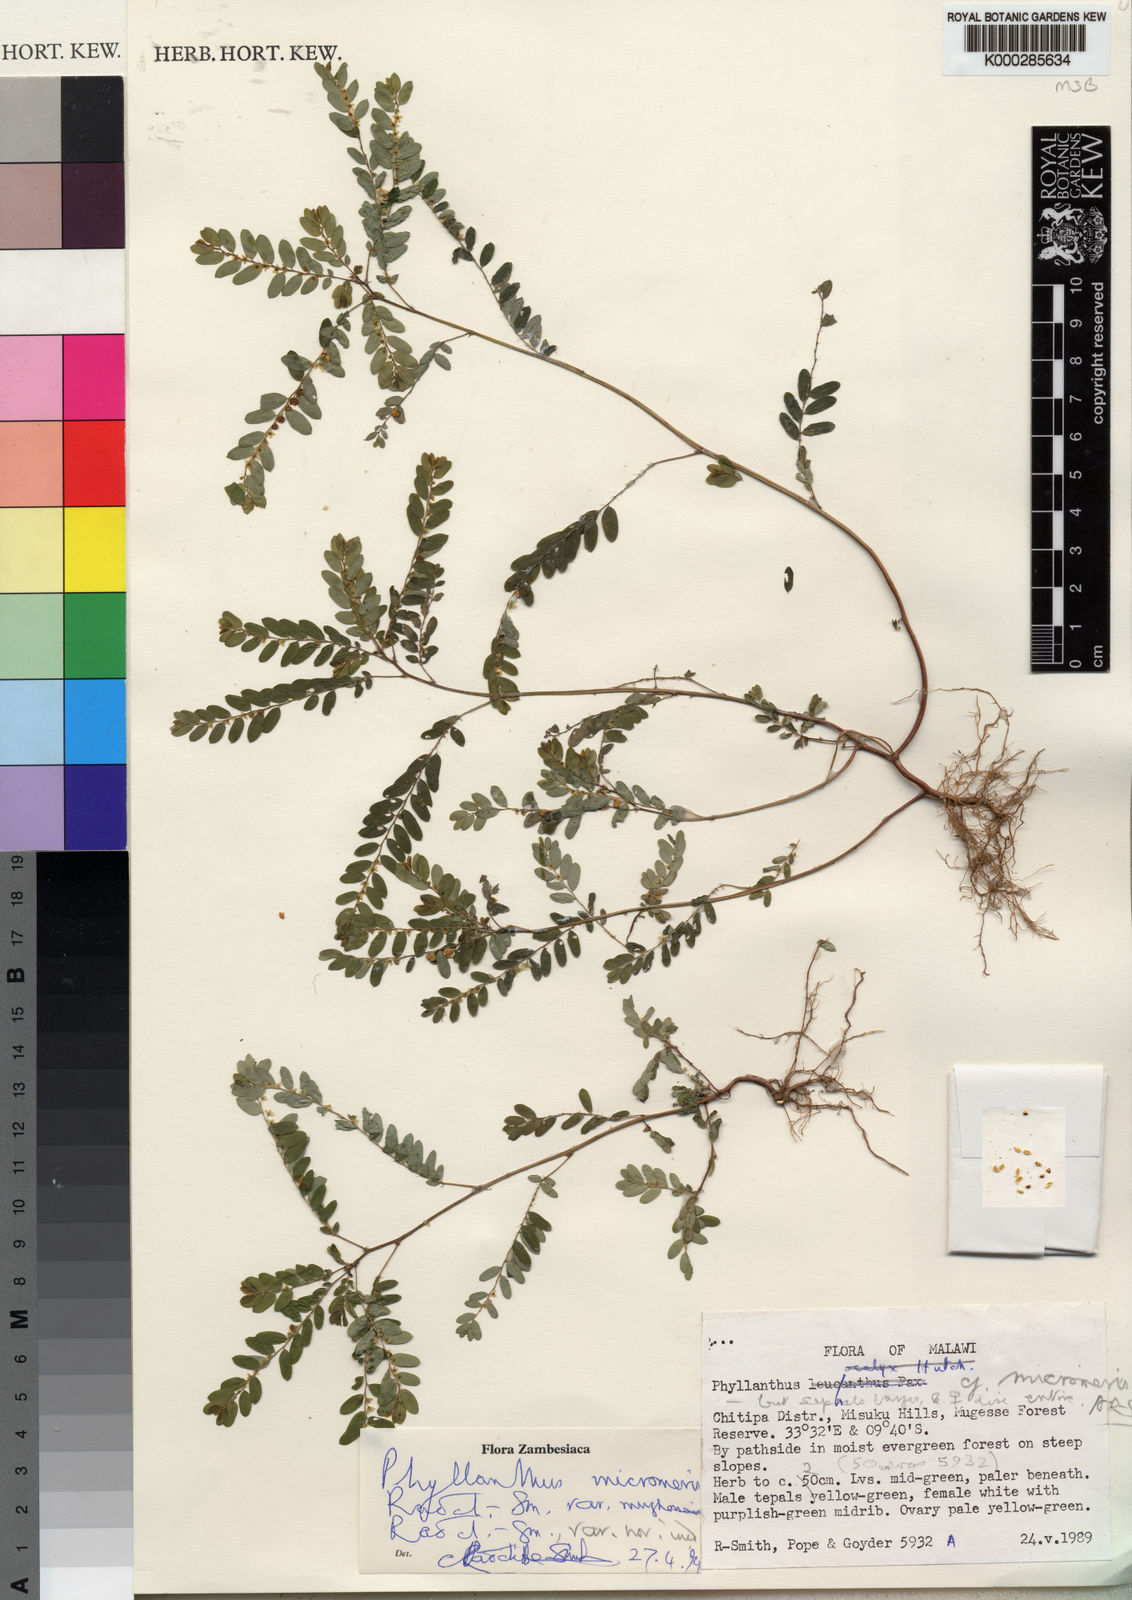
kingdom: Plantae
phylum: Tracheophyta
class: Magnoliopsida
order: Malpighiales
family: Phyllanthaceae
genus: Phyllanthus
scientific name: Phyllanthus micromeris
